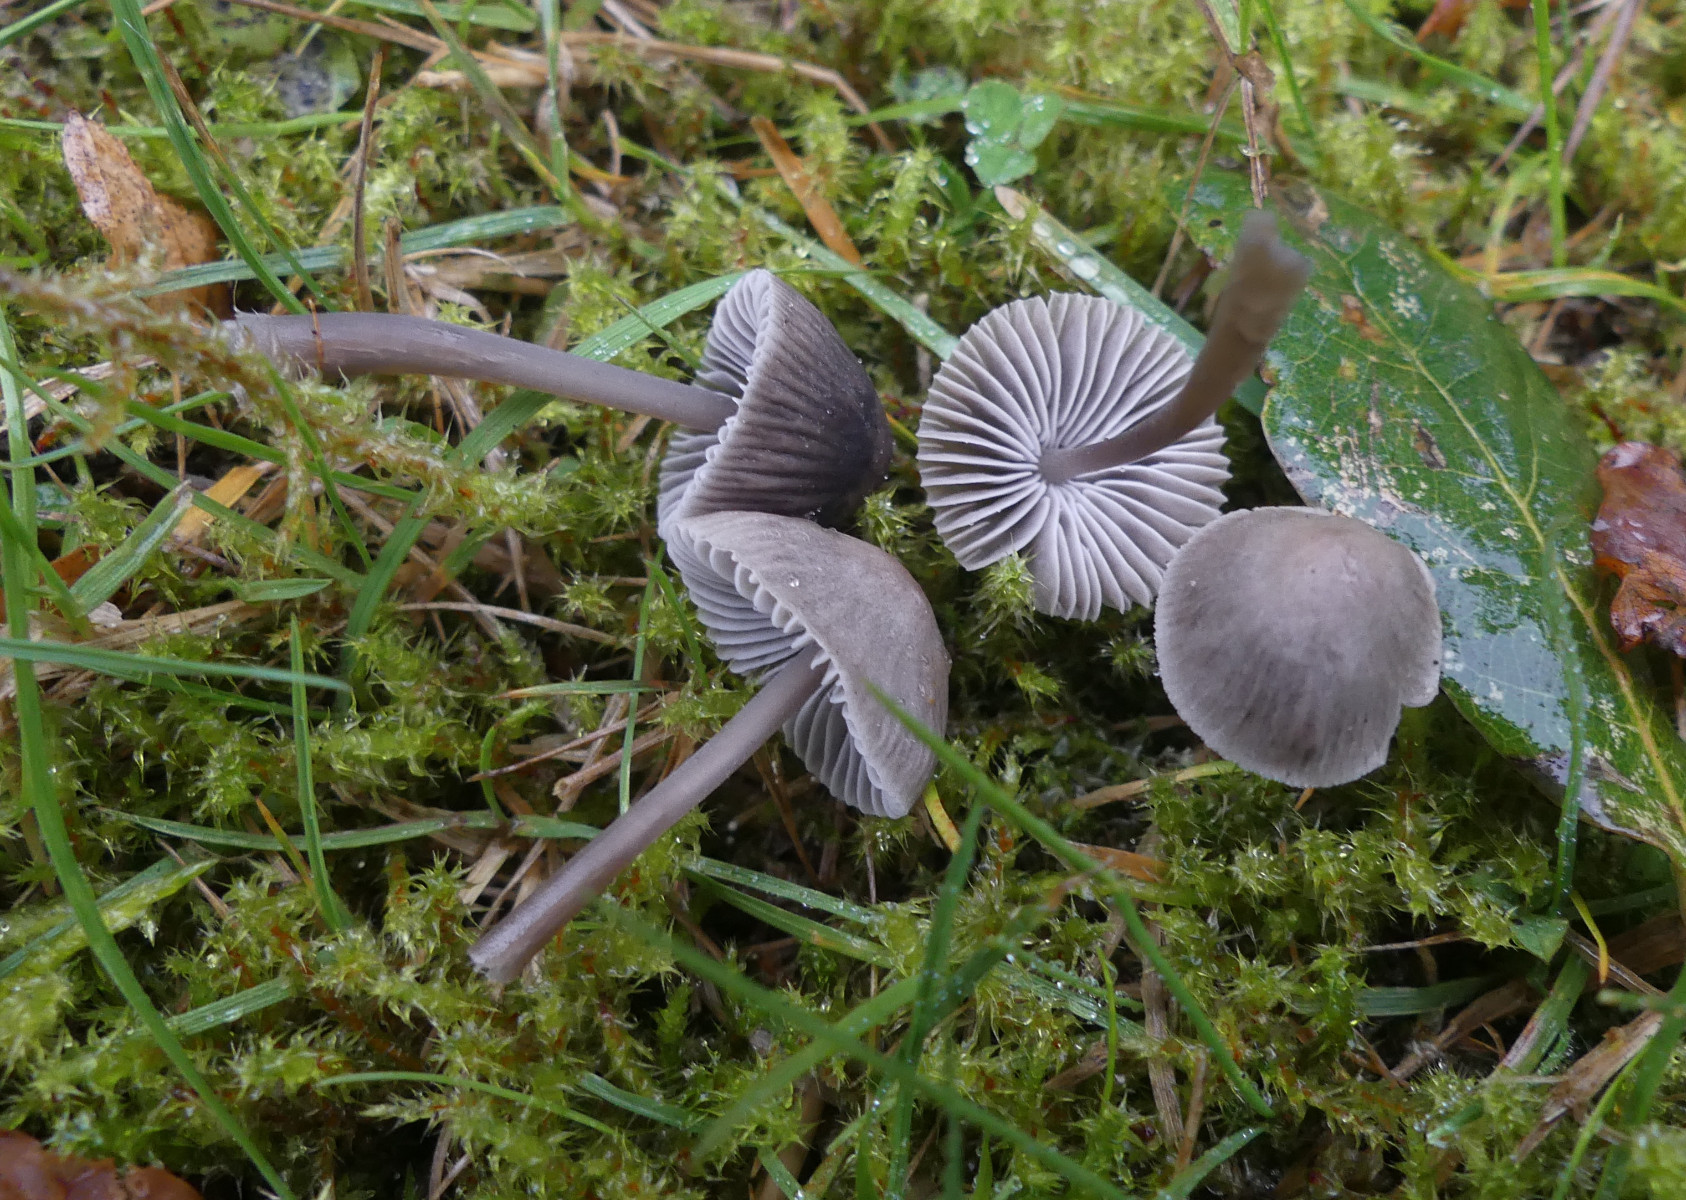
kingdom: Fungi
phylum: Basidiomycota
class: Agaricomycetes
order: Agaricales
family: Mycenaceae
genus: Mycena
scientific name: Mycena aetites
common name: plæne-huesvamp
